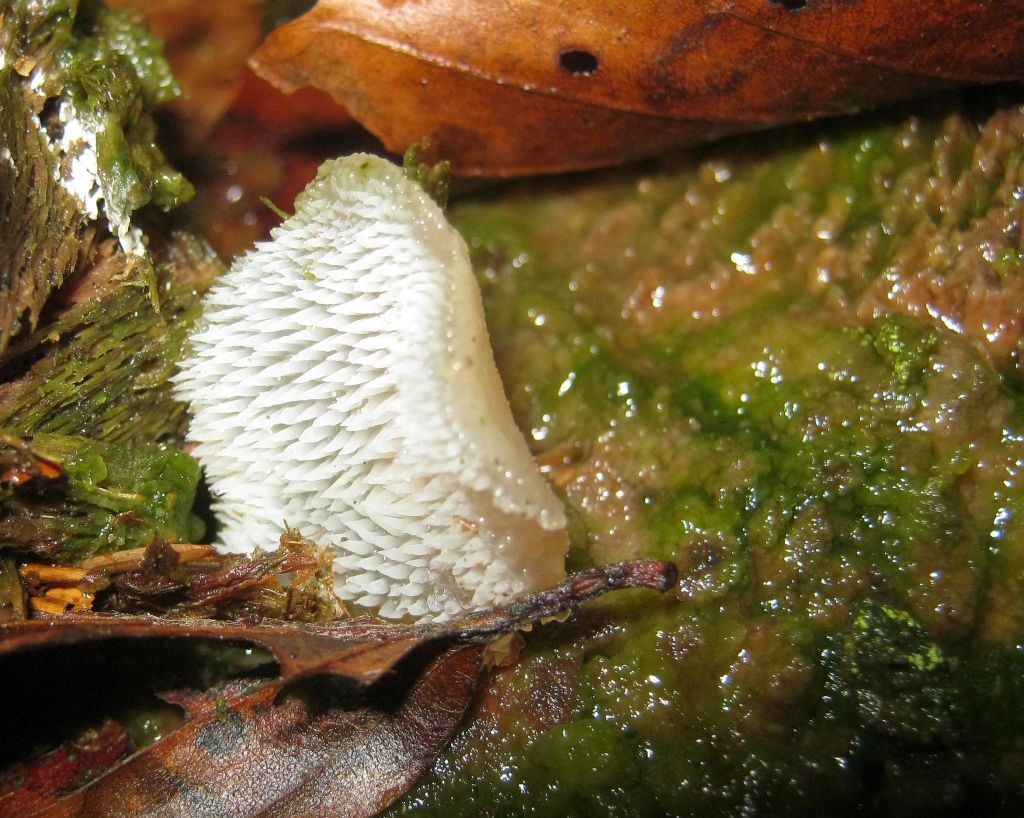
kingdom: Fungi
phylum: Basidiomycota
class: Agaricomycetes
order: Auriculariales
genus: Pseudohydnum
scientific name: Pseudohydnum gelatinosum
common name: bævretand
